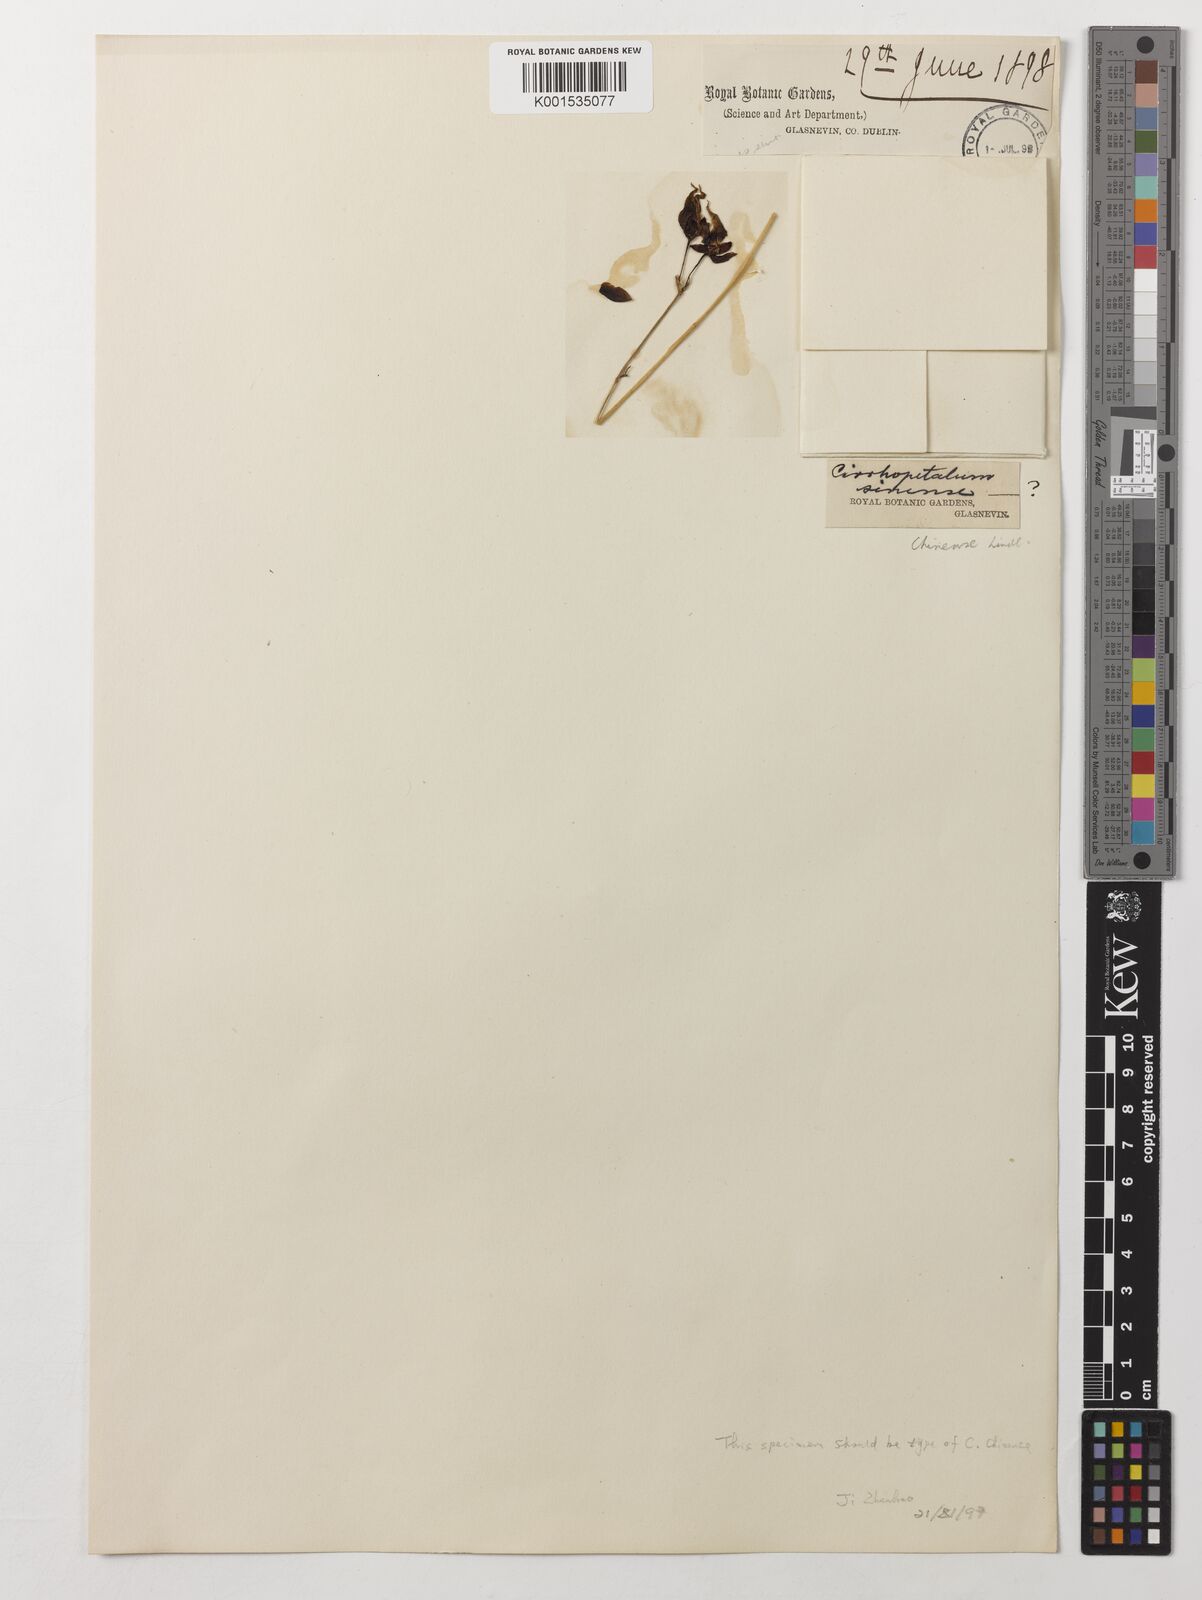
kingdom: Plantae
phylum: Tracheophyta
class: Liliopsida
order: Asparagales
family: Orchidaceae
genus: Bulbophyllum
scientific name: Bulbophyllum chinense
